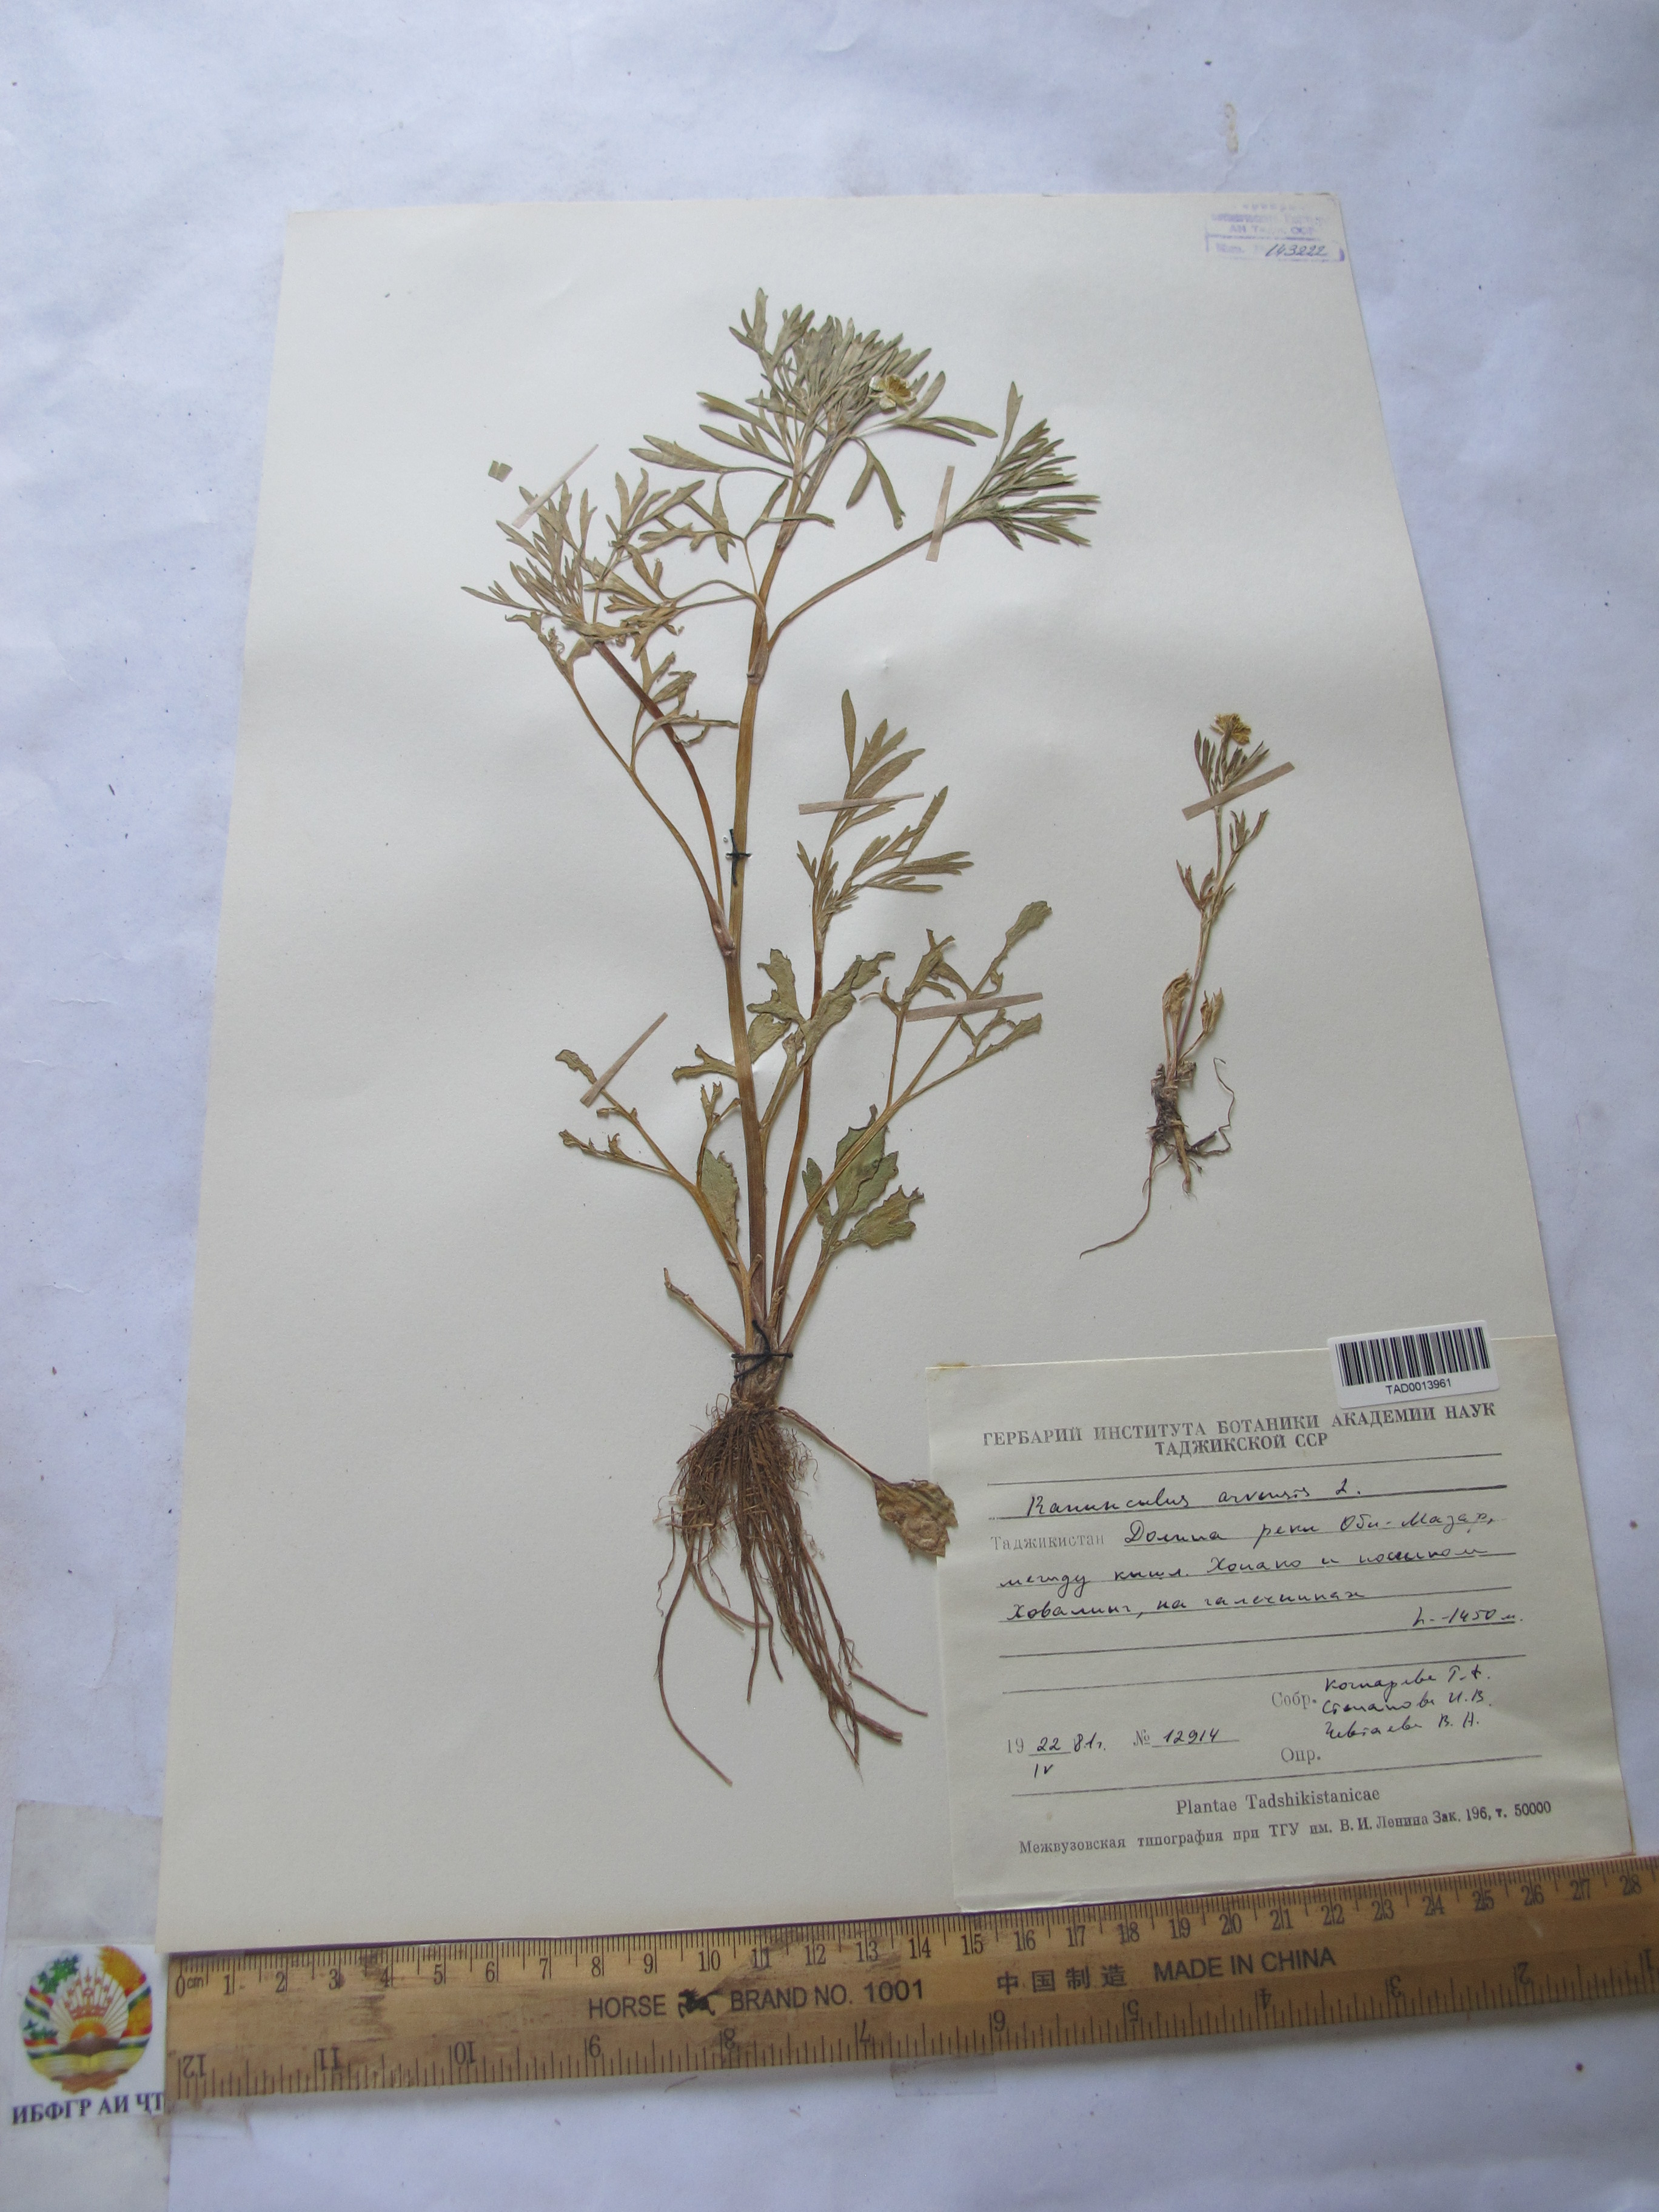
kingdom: Plantae
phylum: Tracheophyta
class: Magnoliopsida
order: Ranunculales
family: Ranunculaceae
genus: Ranunculus
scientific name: Ranunculus arvensis
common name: Corn buttercup
